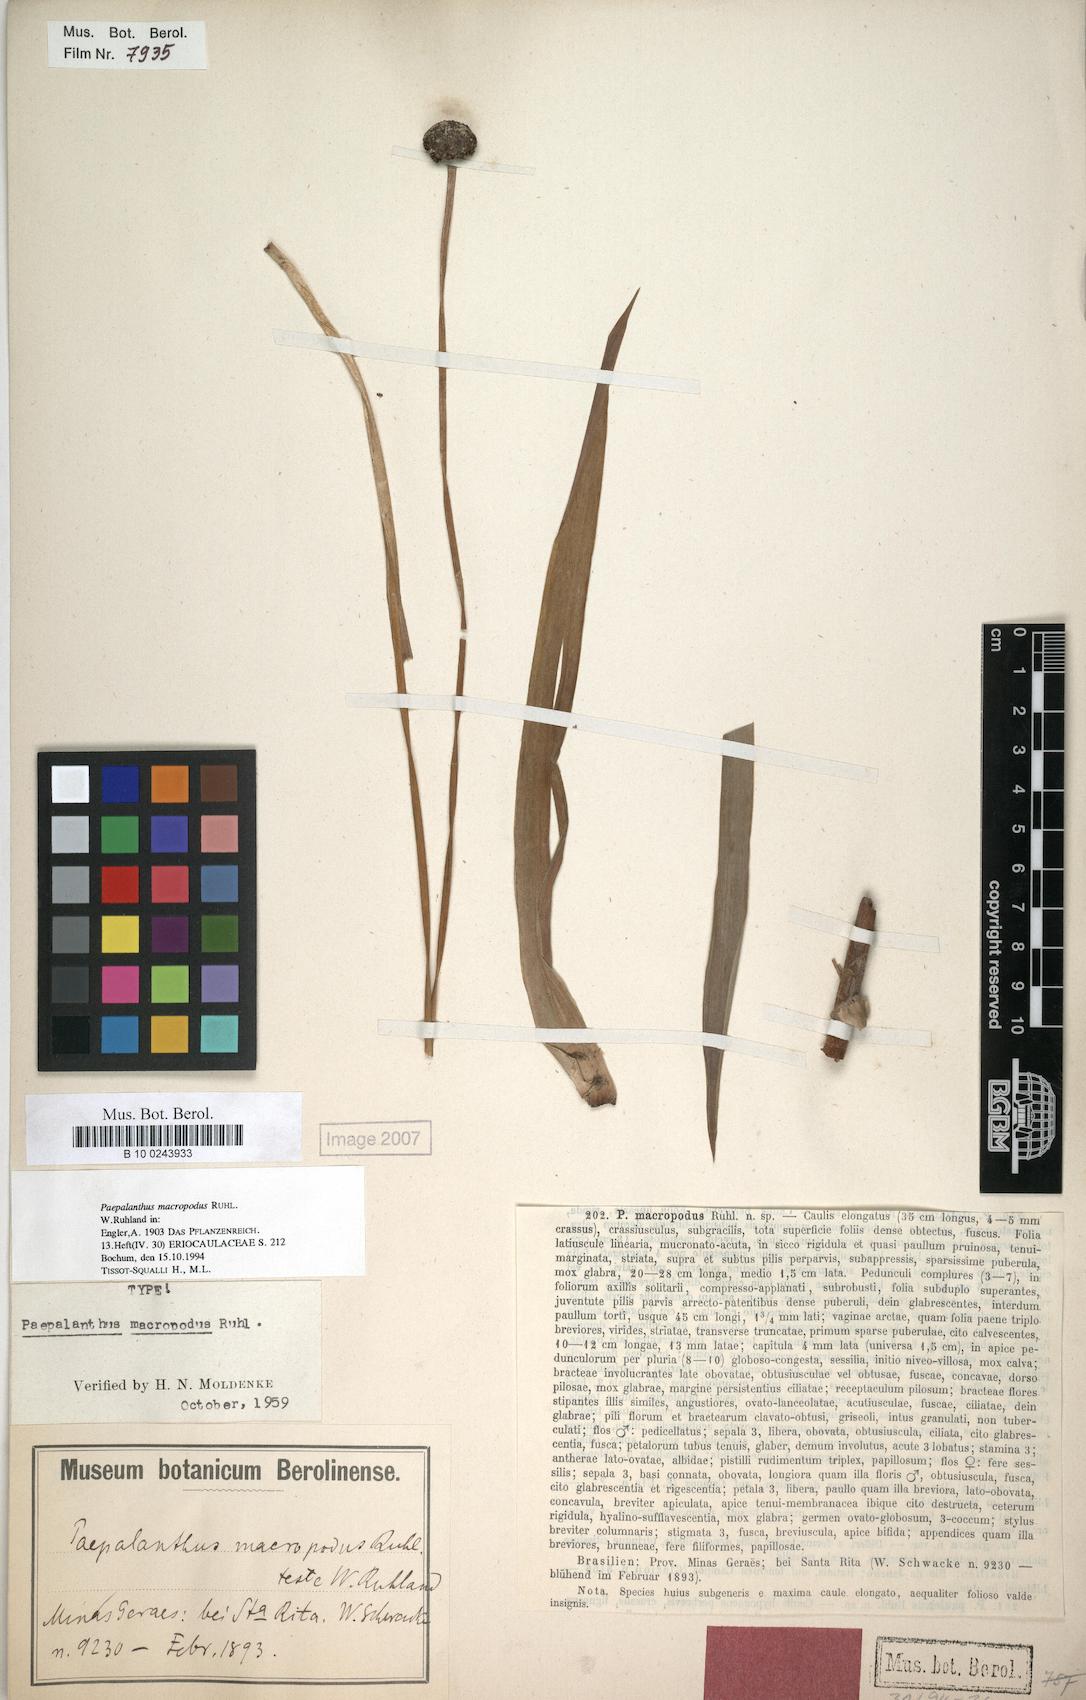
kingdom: Plantae
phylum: Tracheophyta
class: Liliopsida
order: Poales
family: Eriocaulaceae
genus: Paepalanthus
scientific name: Paepalanthus macropodus
